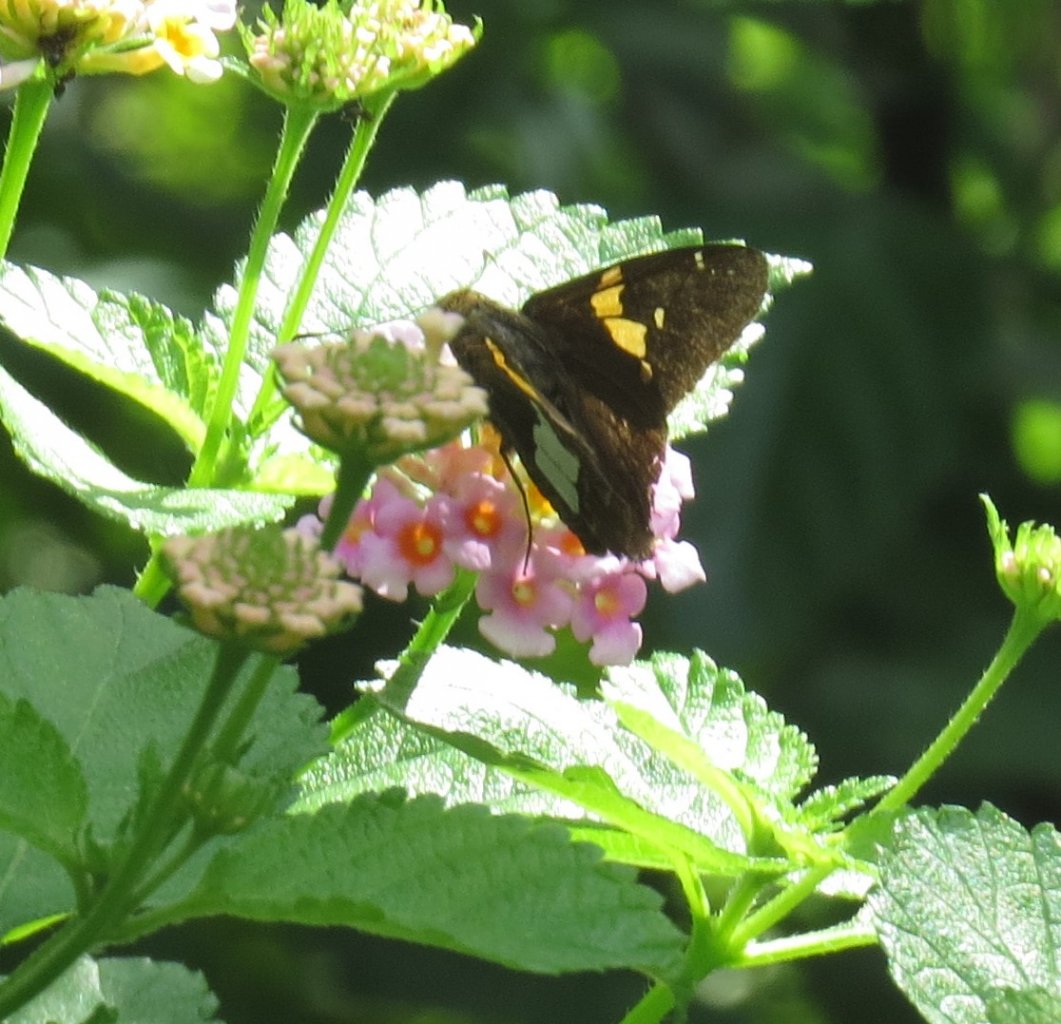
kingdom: Animalia
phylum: Arthropoda
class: Insecta
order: Lepidoptera
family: Hesperiidae
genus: Epargyreus
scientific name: Epargyreus clarus
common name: Silver-spotted Skipper
